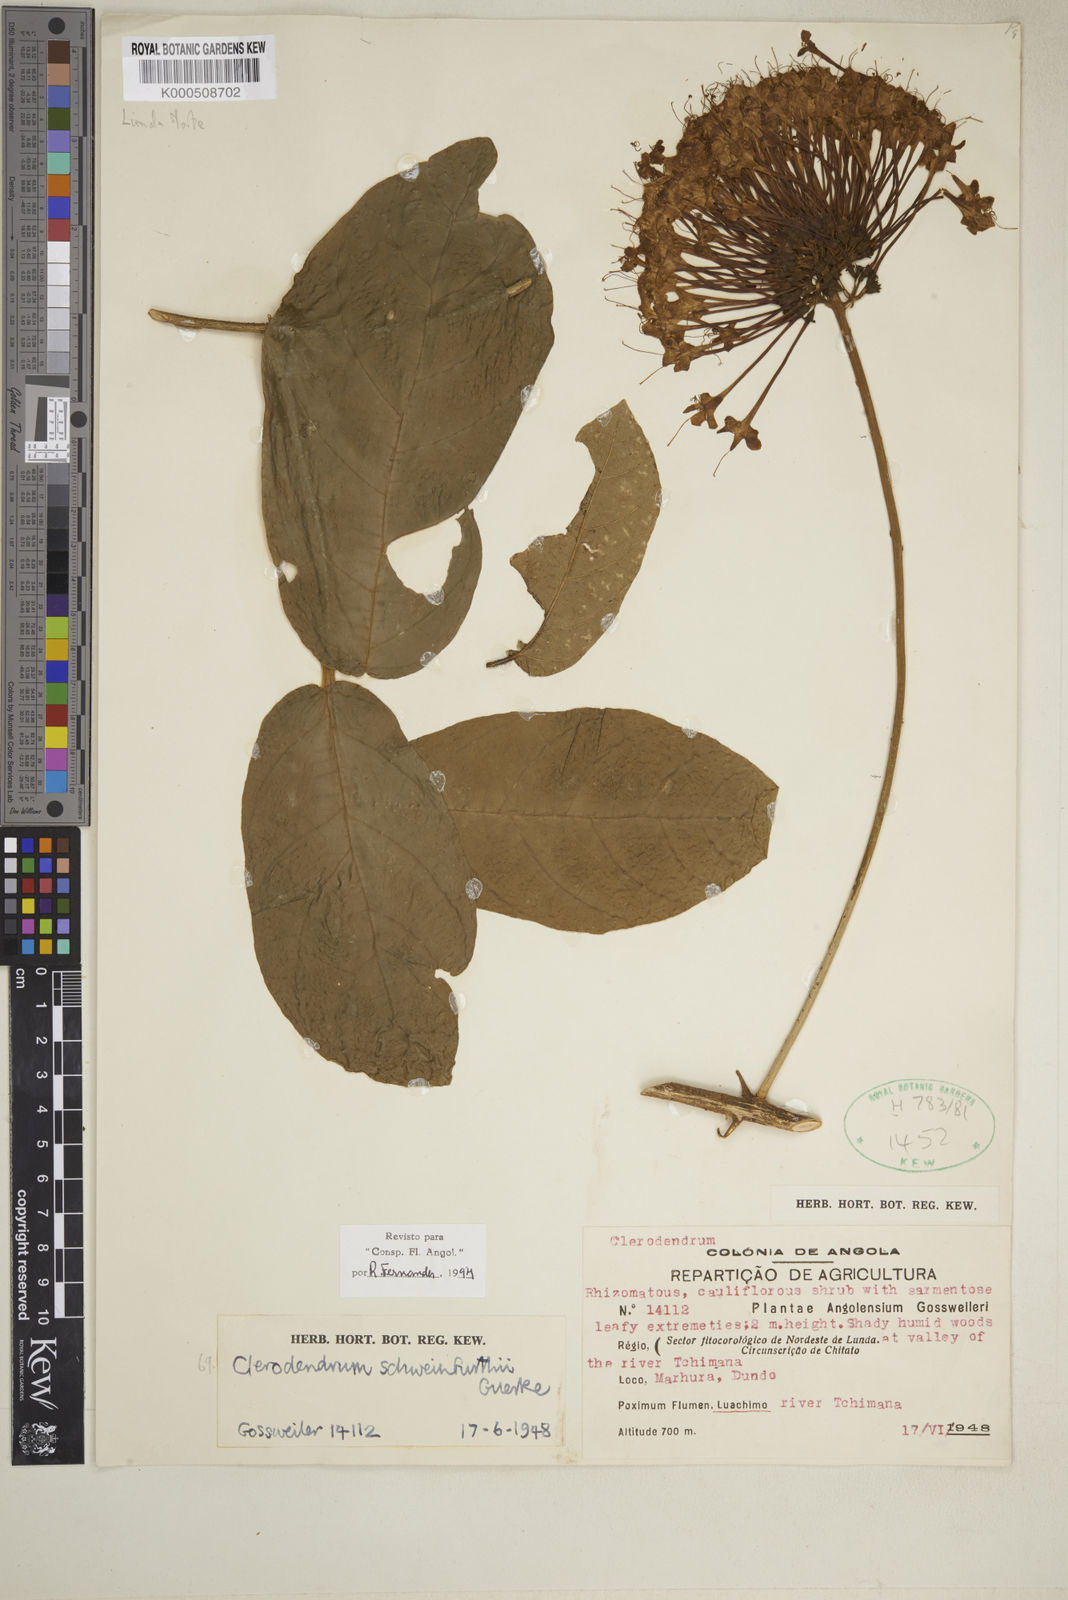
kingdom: Plantae
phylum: Tracheophyta
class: Magnoliopsida
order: Lamiales
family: Lamiaceae
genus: Clerodendrum
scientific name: Clerodendrum
